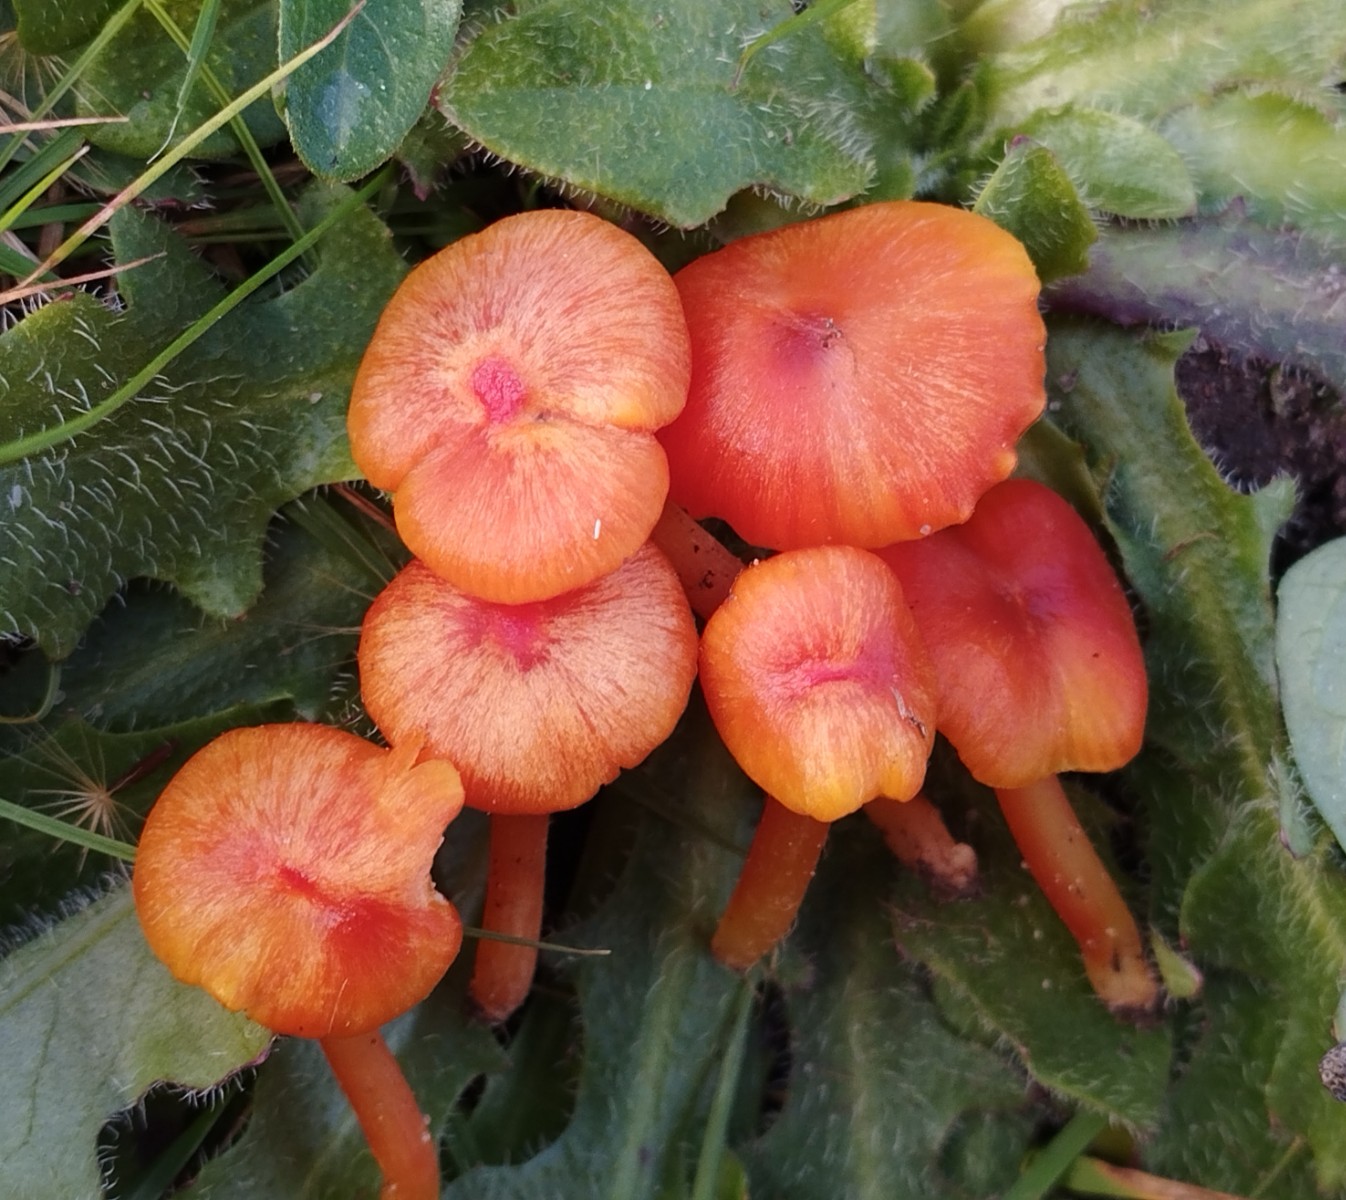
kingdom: Fungi
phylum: Basidiomycota
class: Agaricomycetes
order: Agaricales
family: Hygrophoraceae
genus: Hygrocybe
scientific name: Hygrocybe miniata
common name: mønje-vokshat
